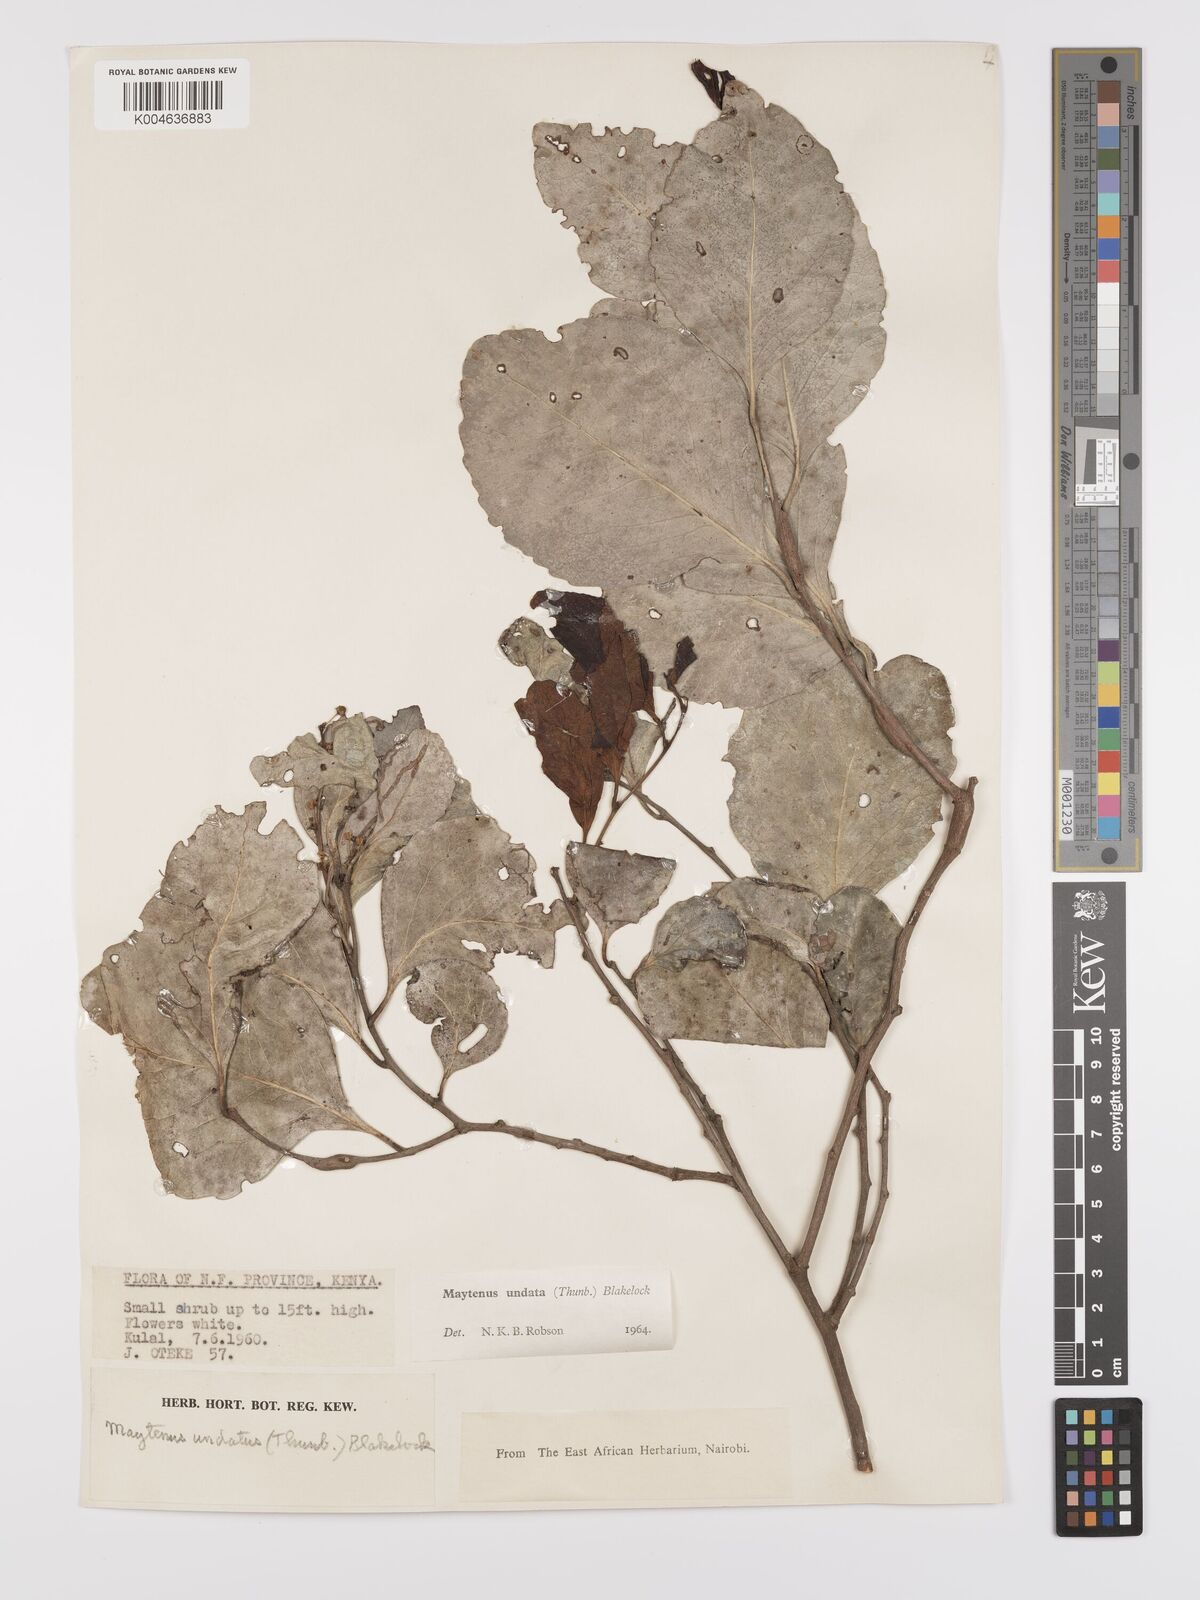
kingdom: Plantae
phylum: Tracheophyta
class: Magnoliopsida
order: Celastrales
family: Celastraceae
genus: Gymnosporia
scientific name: Gymnosporia undata
